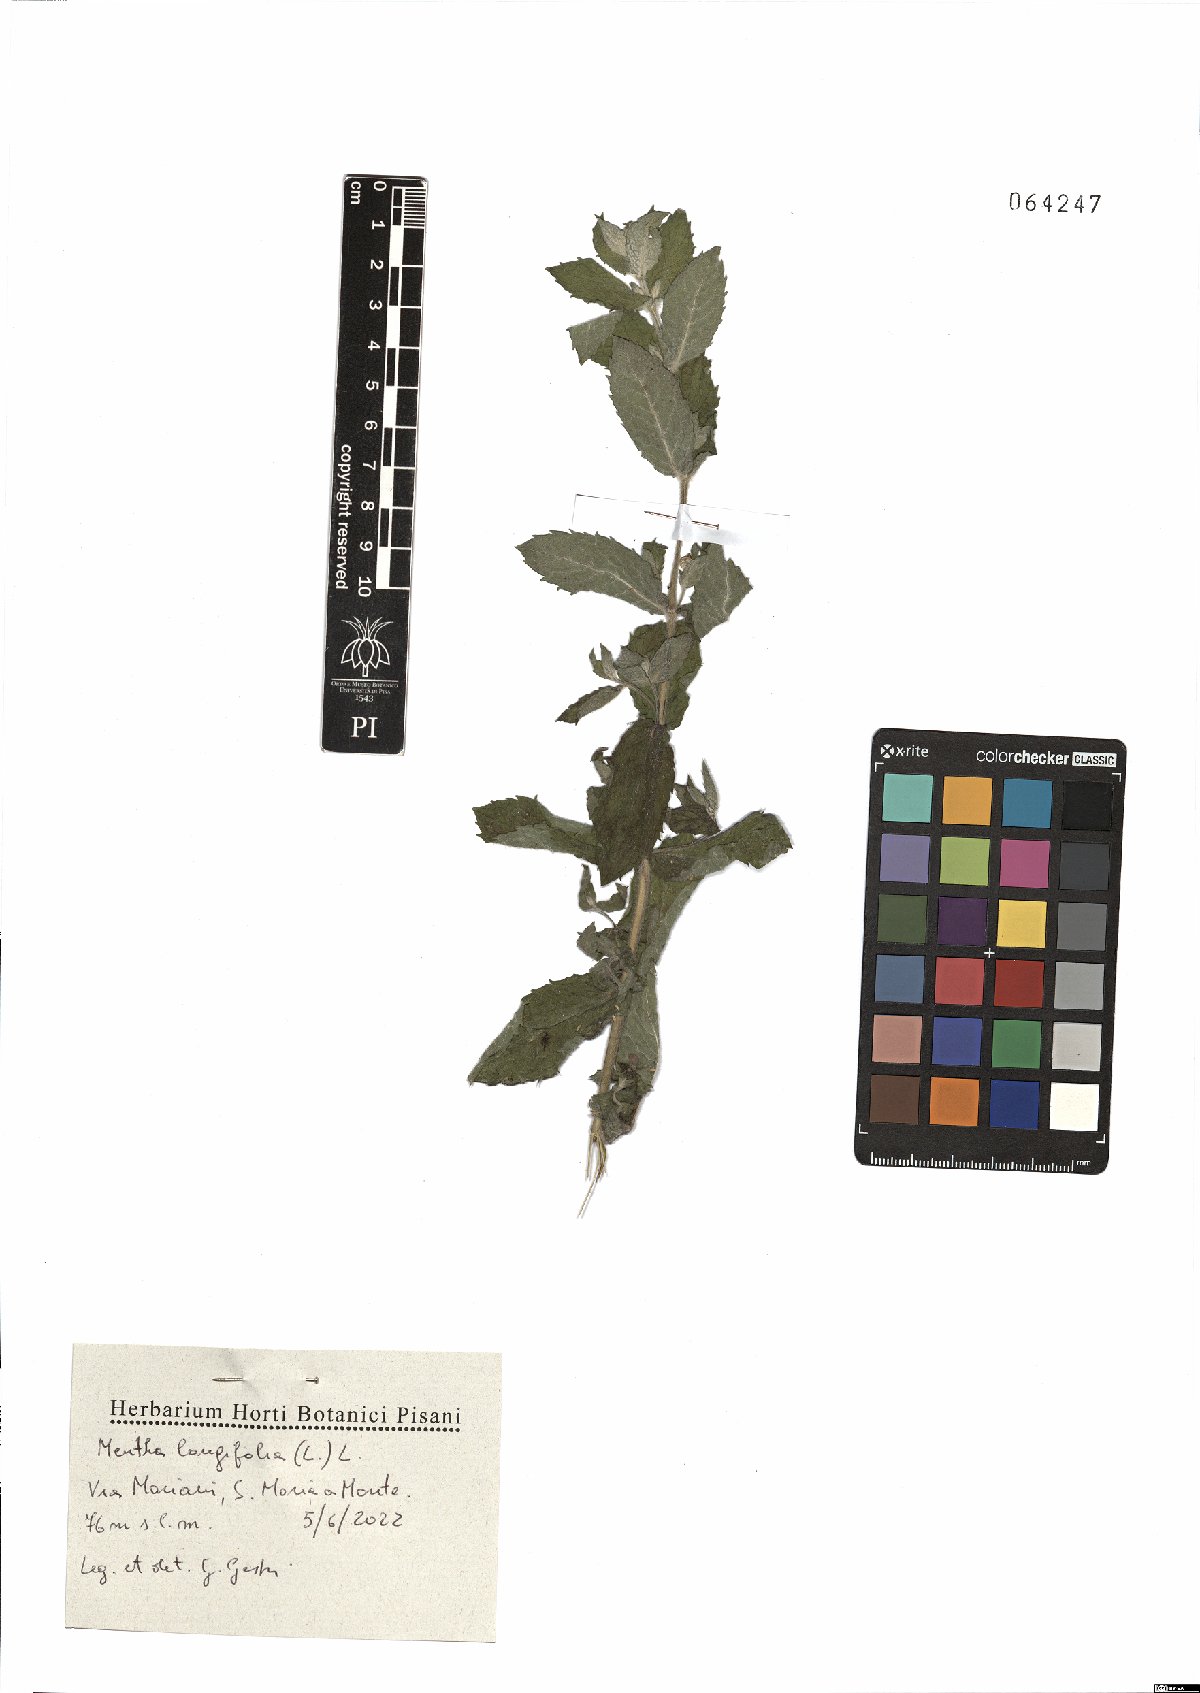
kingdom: Plantae
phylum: Tracheophyta
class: Magnoliopsida
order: Lamiales
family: Lamiaceae
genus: Mentha
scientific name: Mentha longifolia
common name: Horse mint
